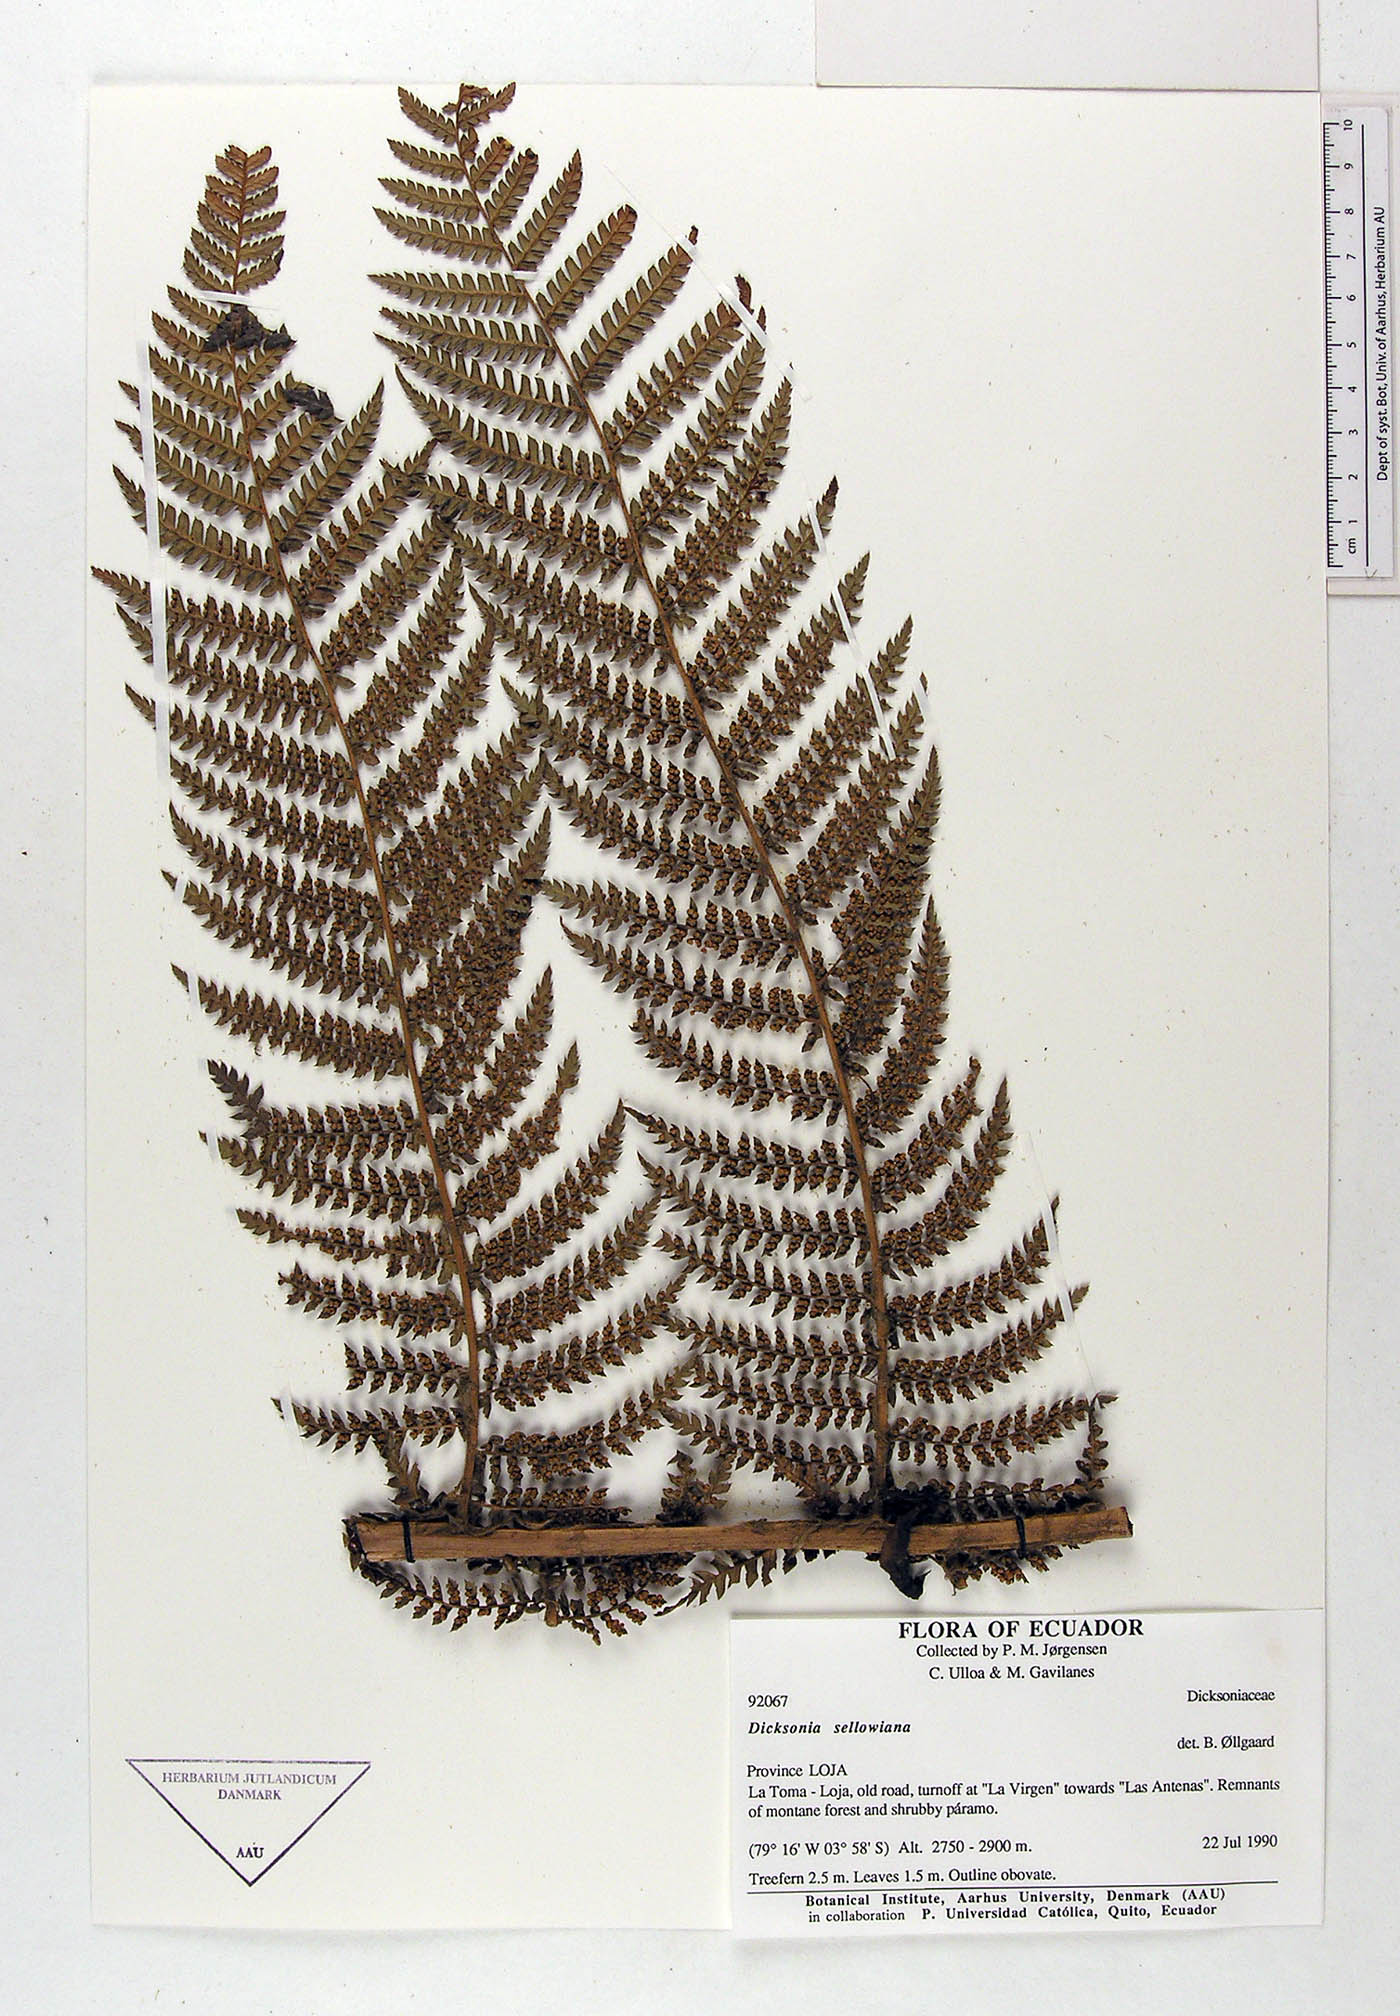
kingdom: Plantae
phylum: Tracheophyta
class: Polypodiopsida
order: Cyatheales
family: Dicksoniaceae
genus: Dicksonia
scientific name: Dicksonia sellowiana
